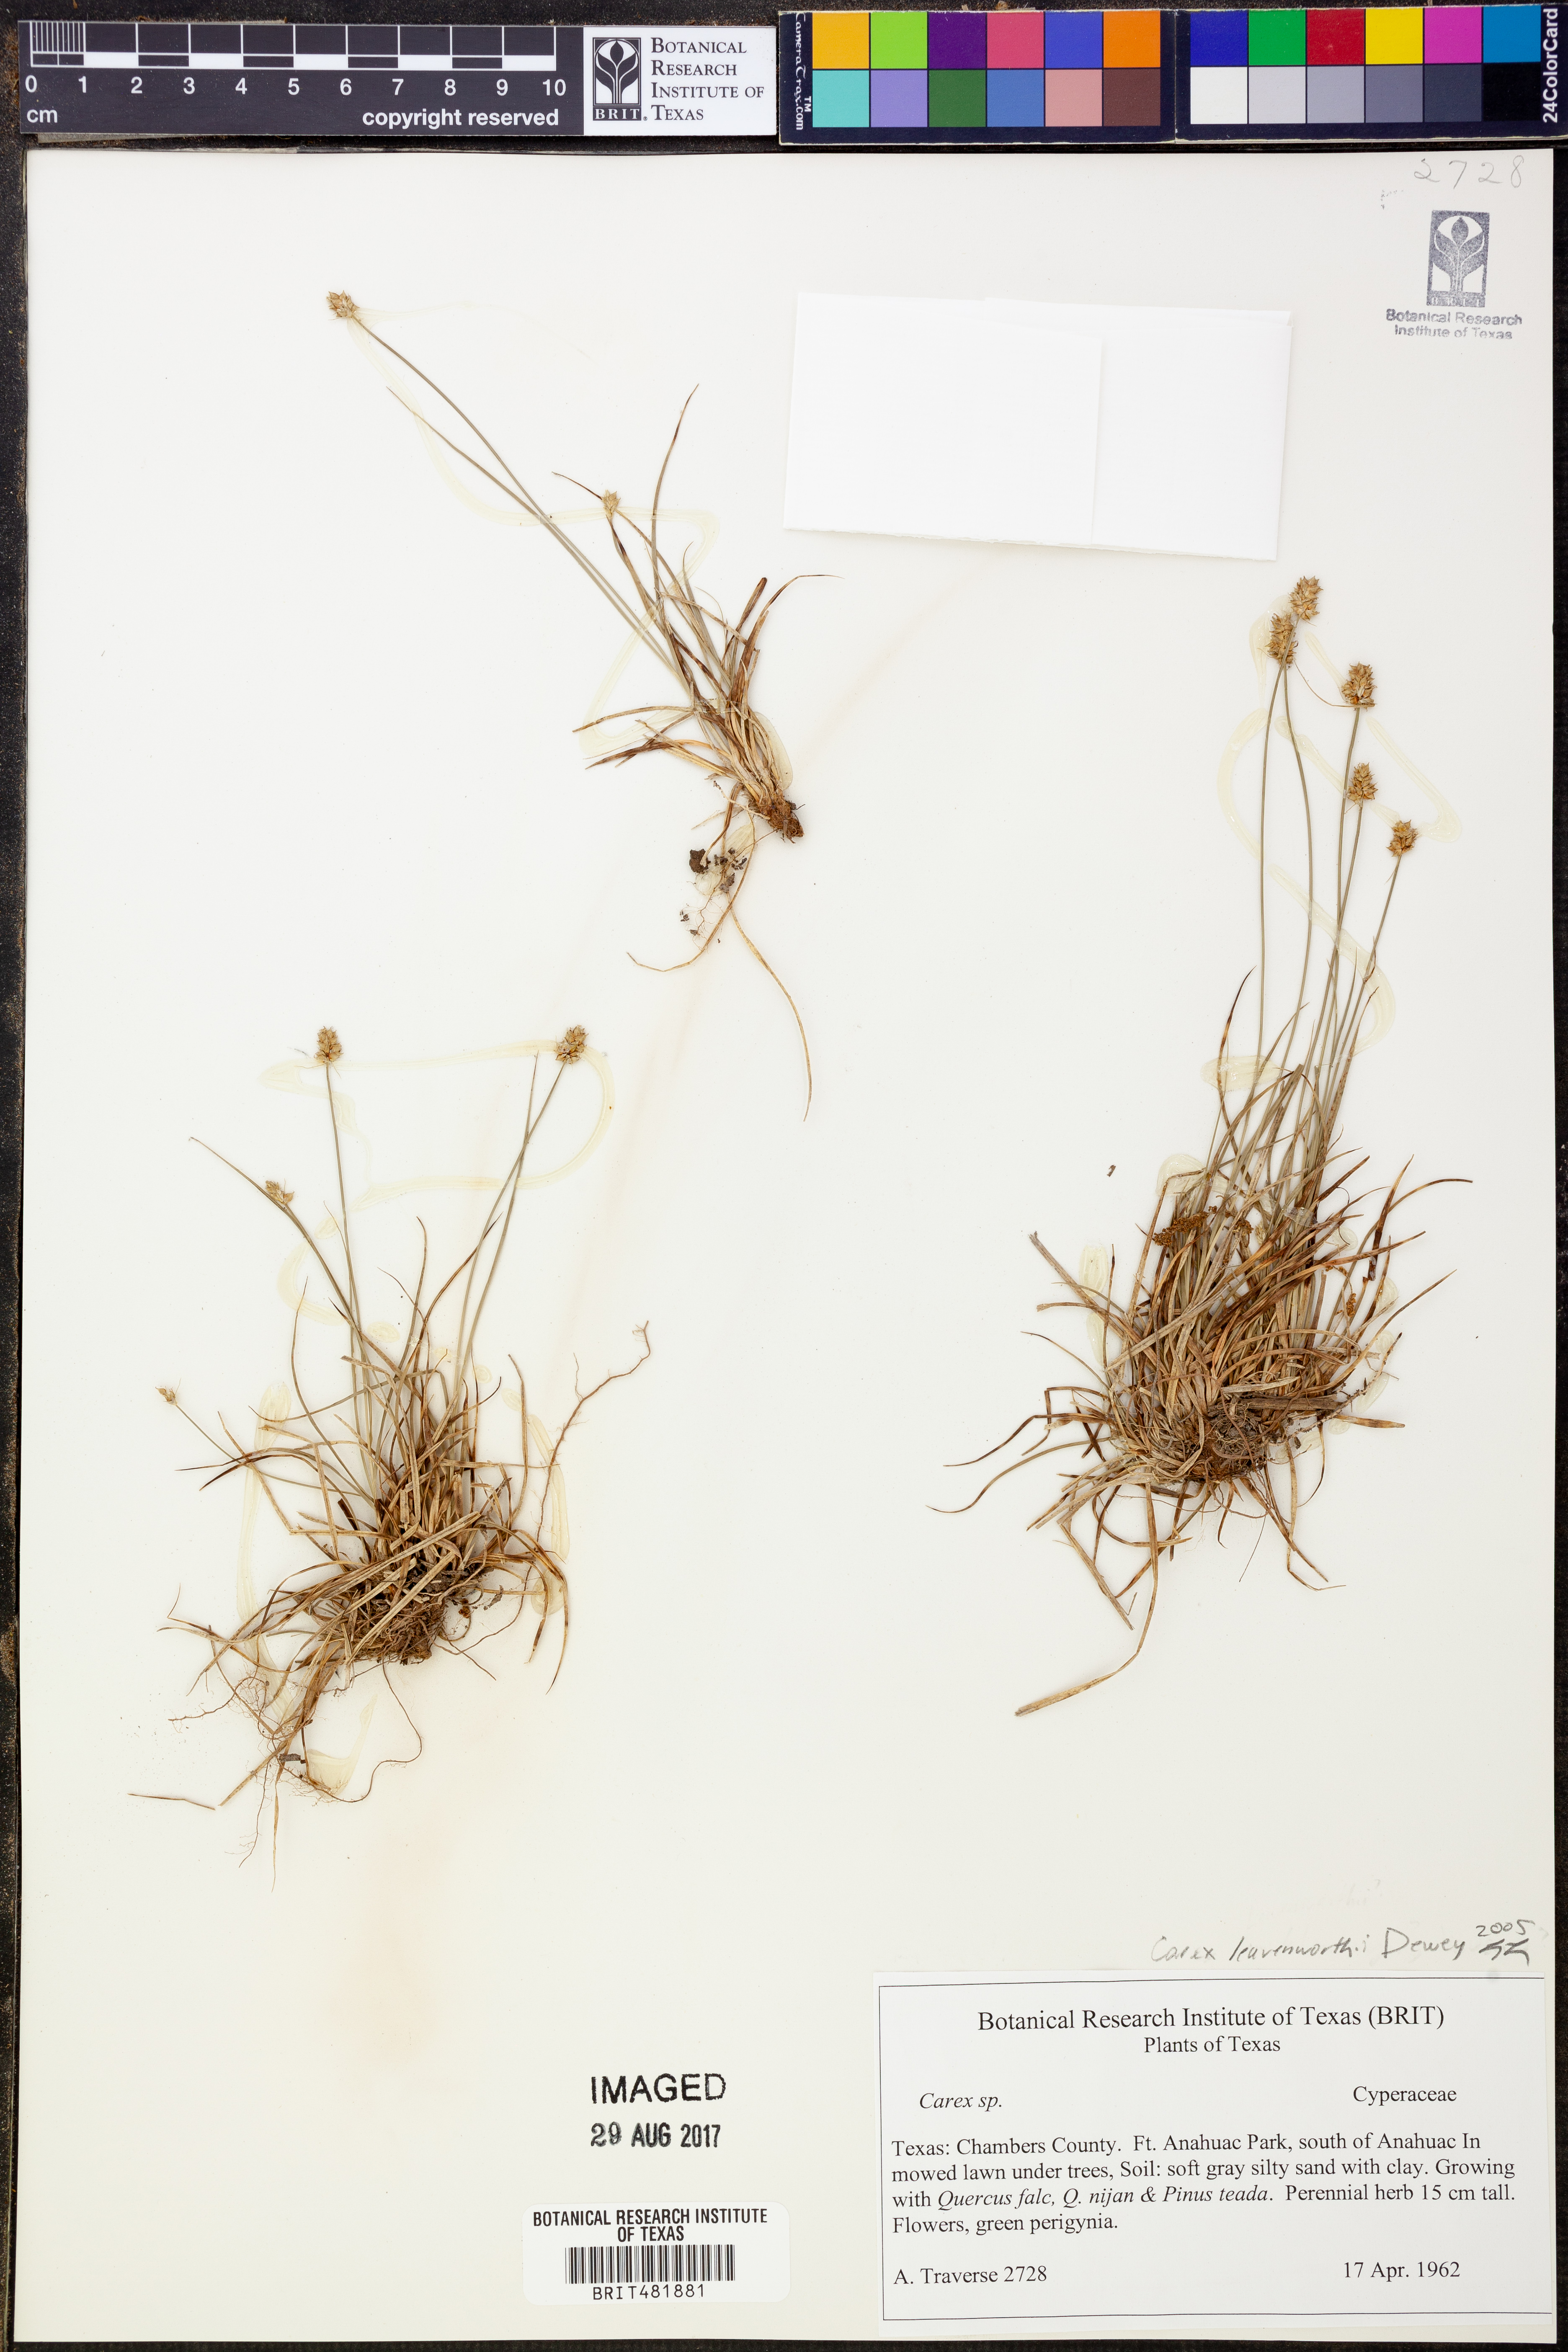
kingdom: Plantae
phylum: Tracheophyta
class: Liliopsida
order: Poales
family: Cyperaceae
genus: Carex
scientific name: Carex leavenworthii
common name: Leavenworth's bracted sedge
